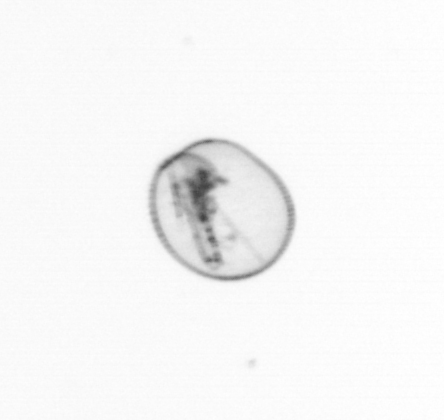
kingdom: Chromista
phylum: Myzozoa
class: Dinophyceae
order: Noctilucales
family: Noctilucaceae
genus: Noctiluca
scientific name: Noctiluca scintillans
